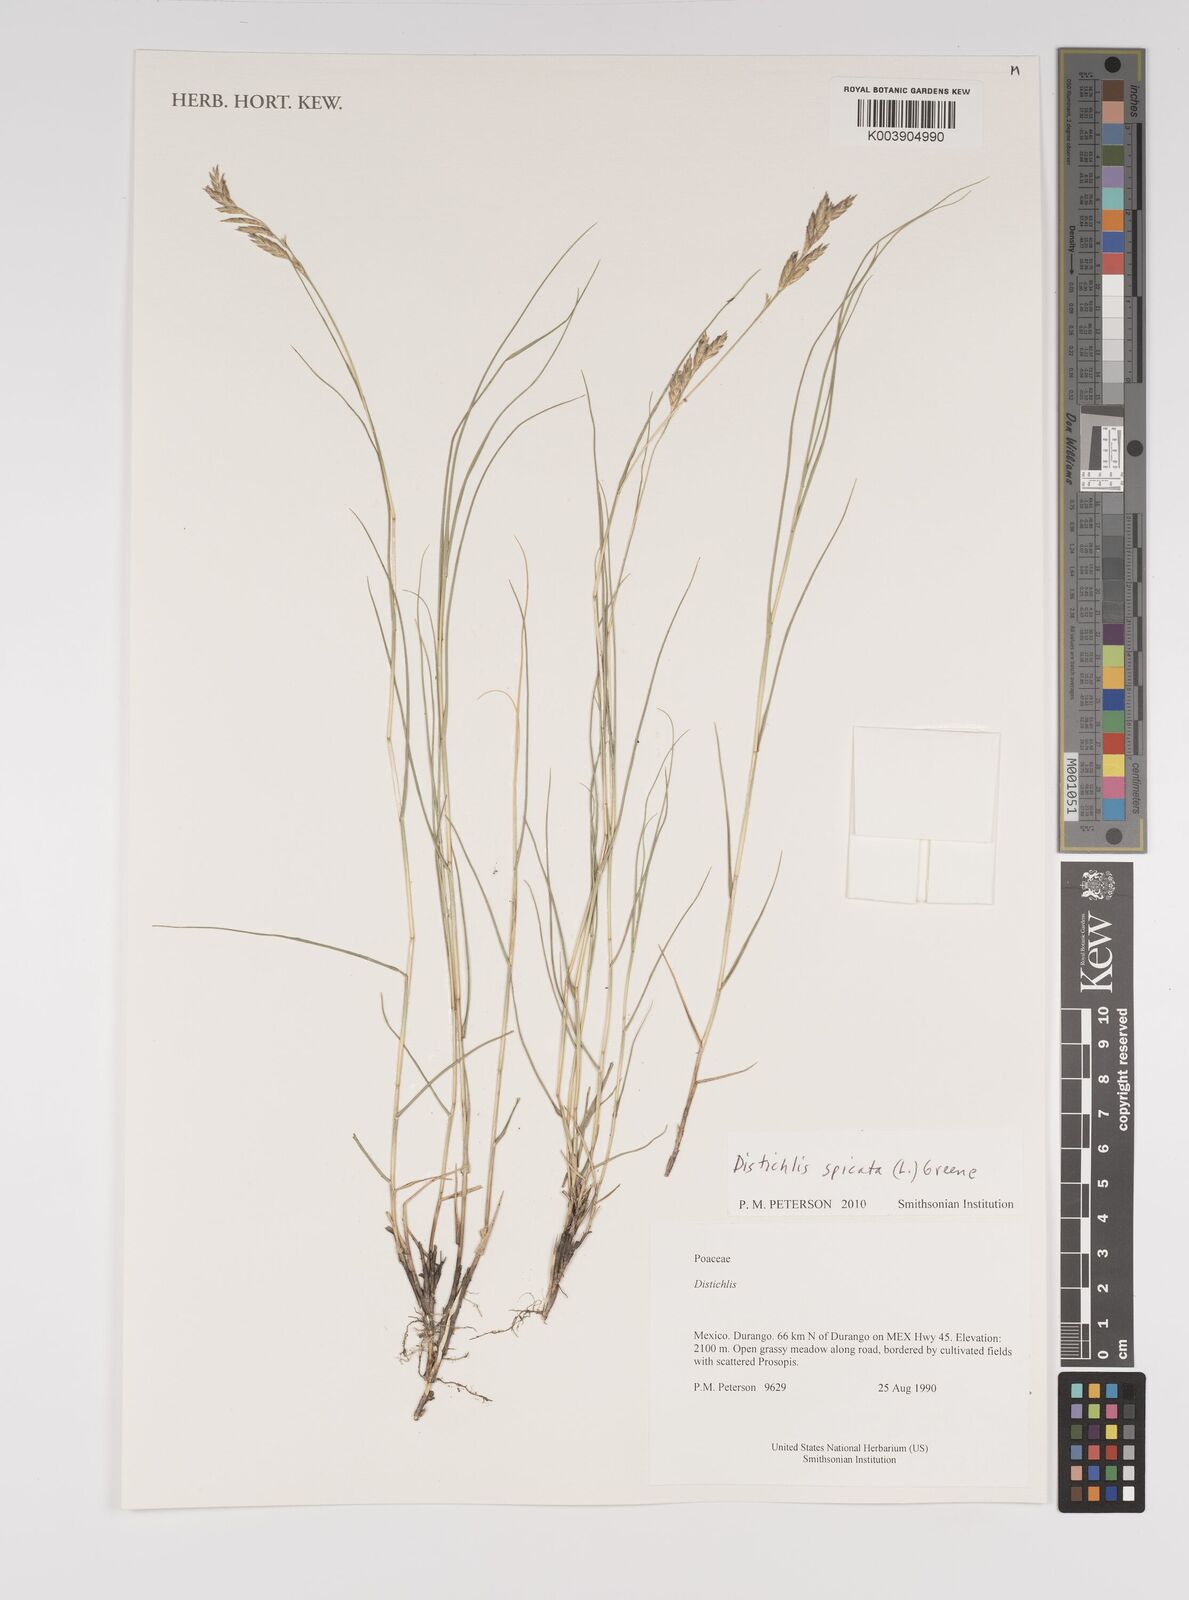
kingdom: Plantae
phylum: Tracheophyta
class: Liliopsida
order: Poales
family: Poaceae
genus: Distichlis
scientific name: Distichlis spicata
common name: Saltgrass
